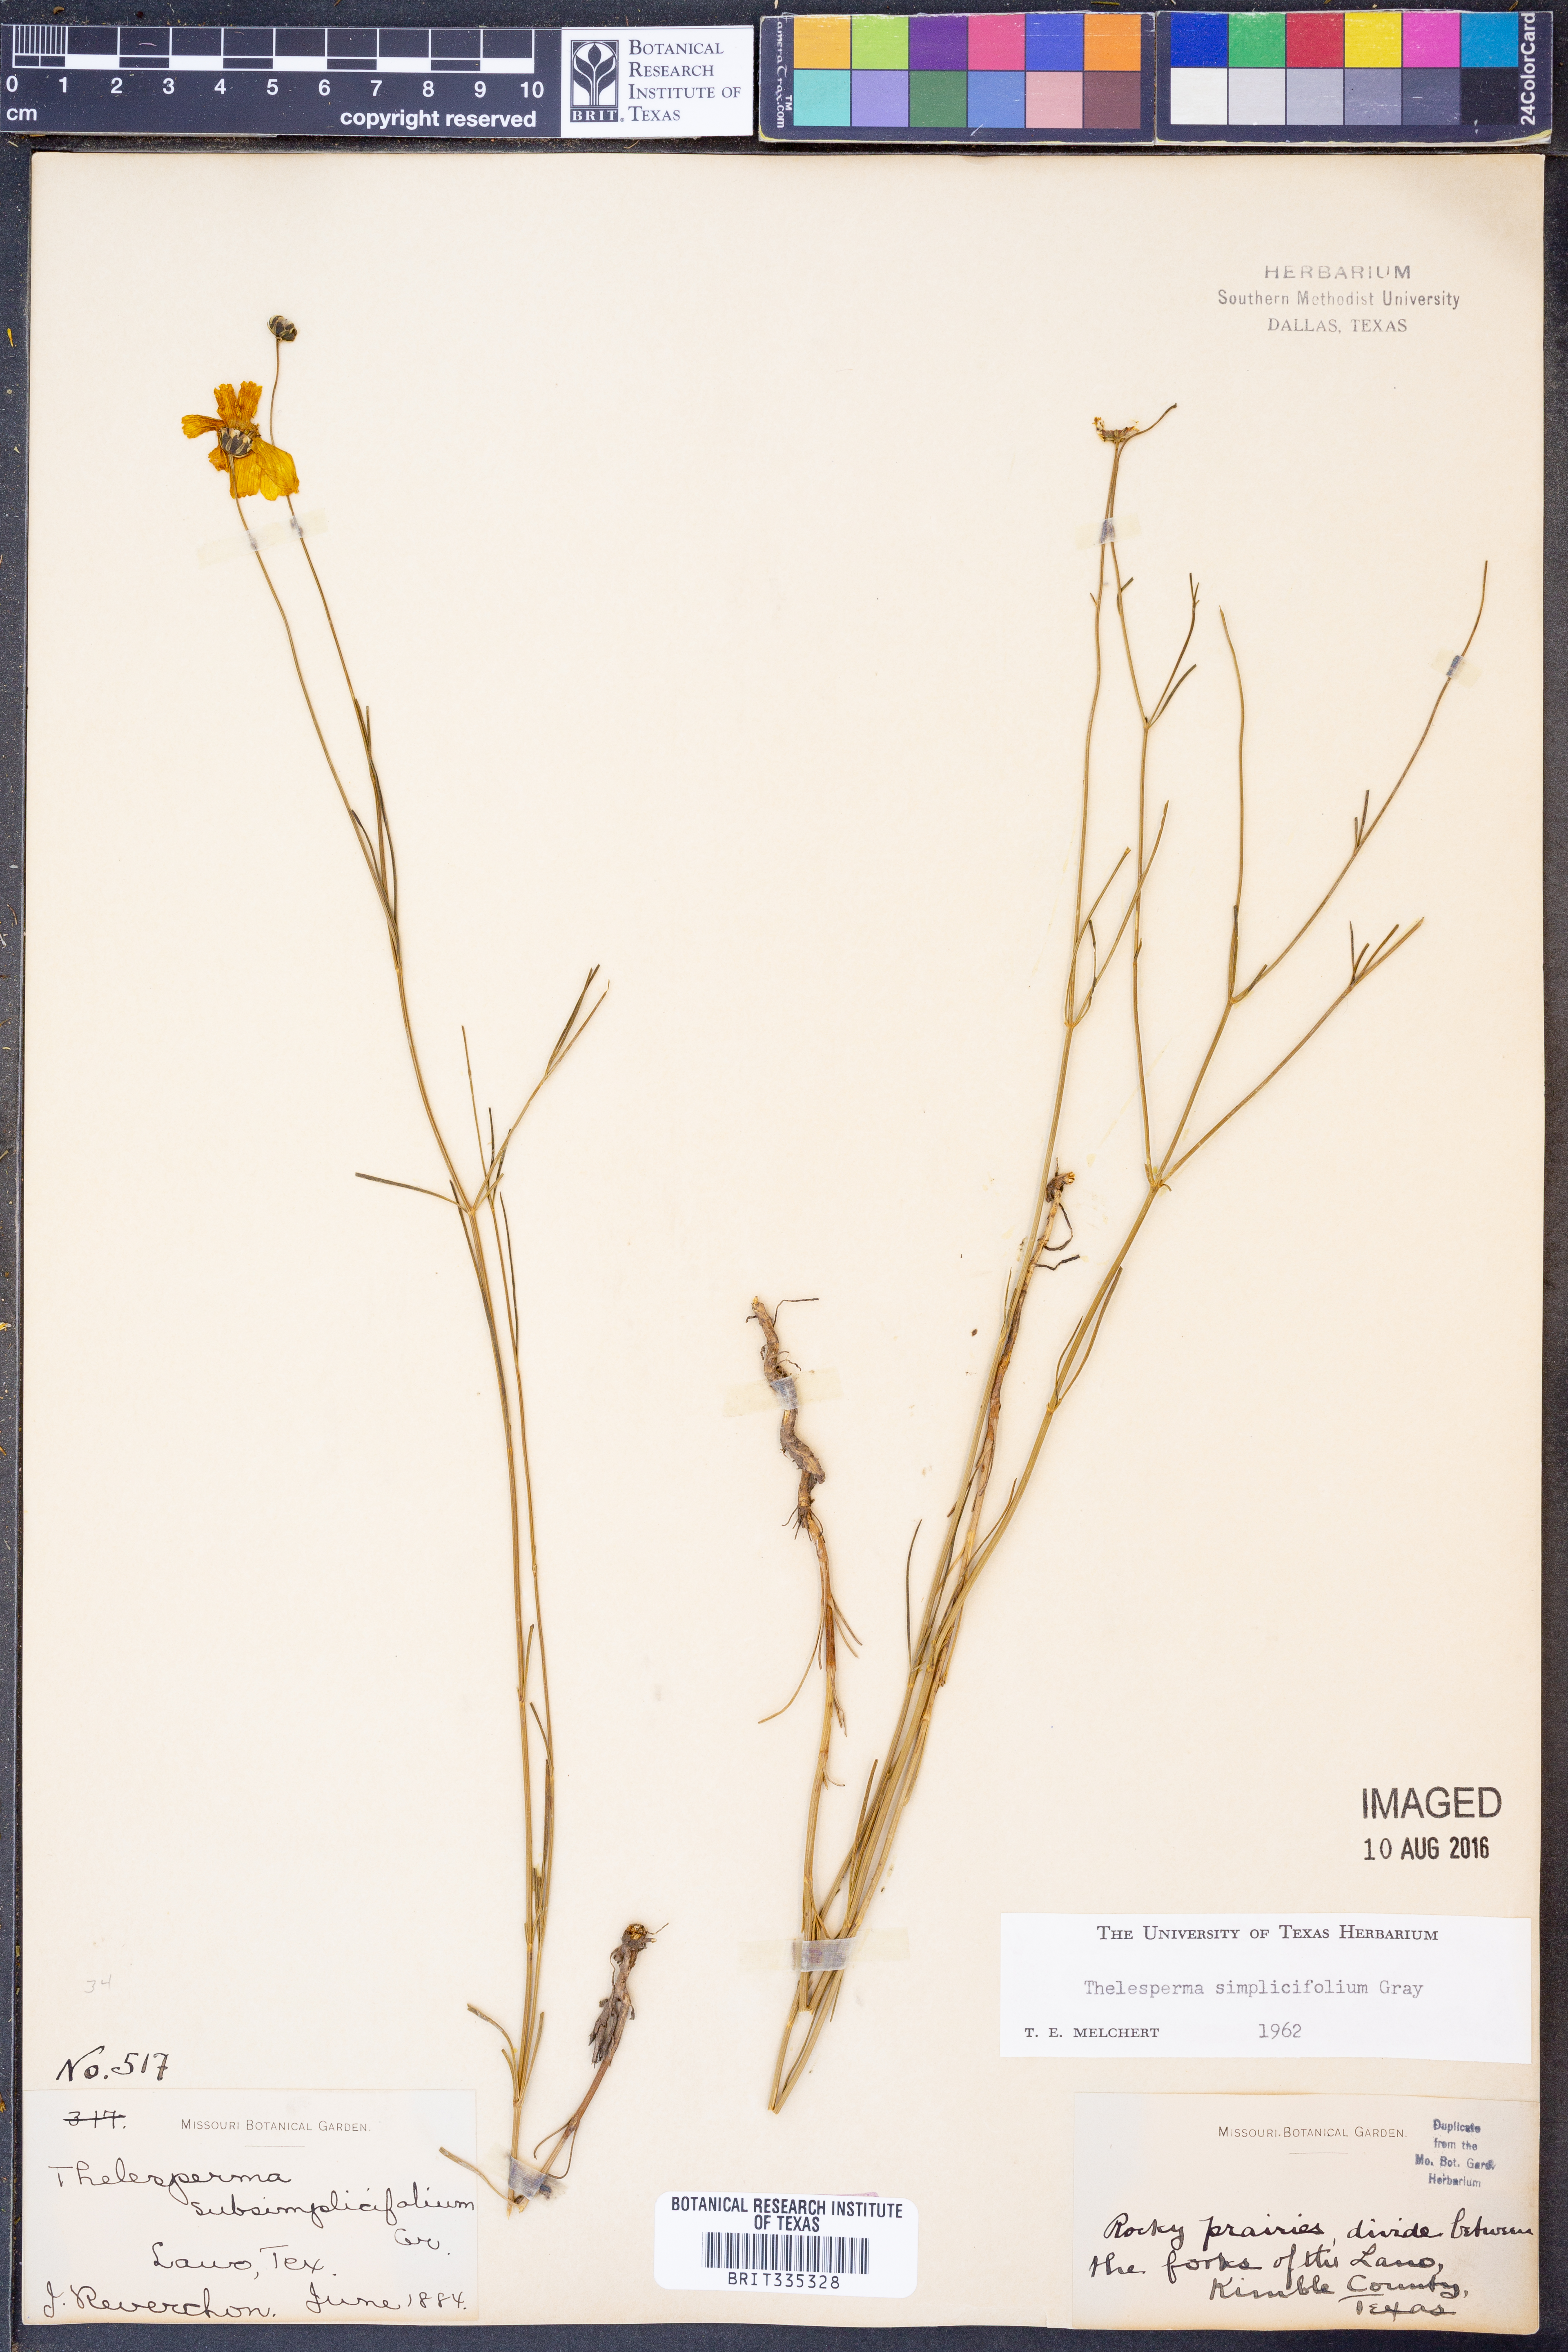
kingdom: Plantae
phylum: Tracheophyta
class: Magnoliopsida
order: Asterales
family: Asteraceae
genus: Thelesperma
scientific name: Thelesperma simplicifolium
